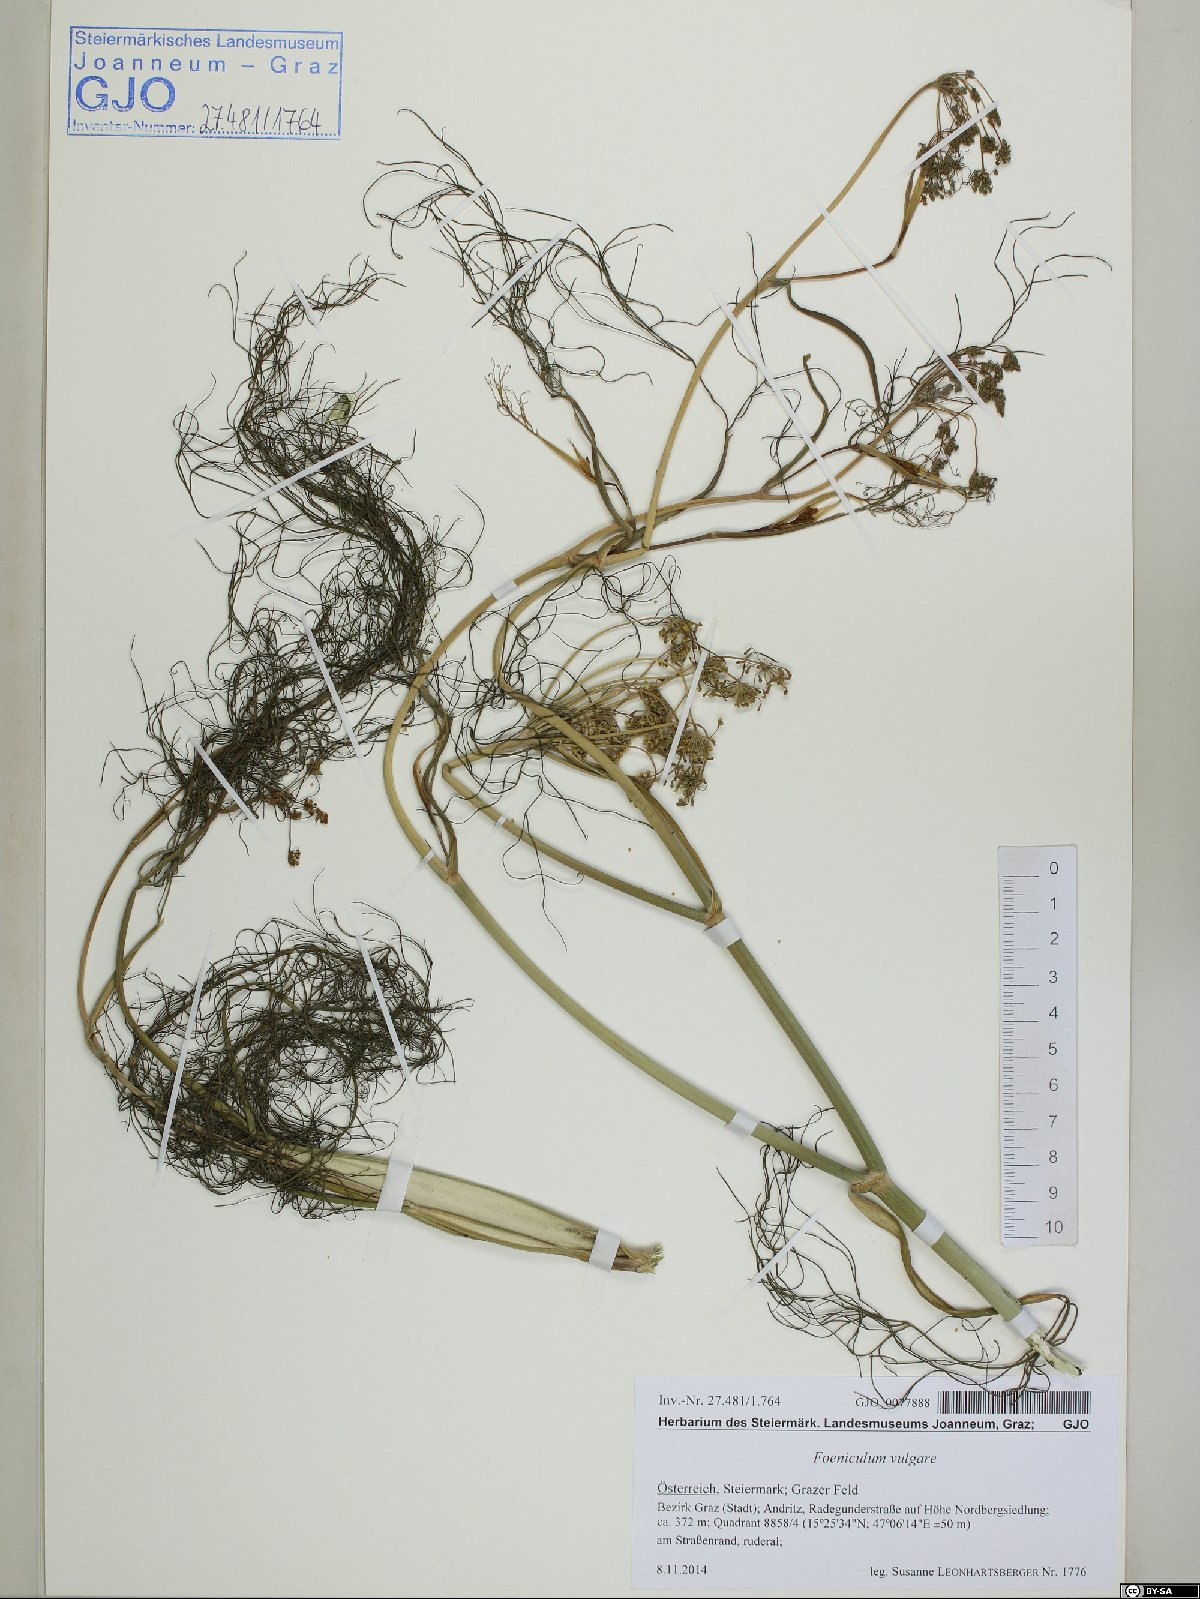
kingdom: Plantae
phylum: Tracheophyta
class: Magnoliopsida
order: Apiales
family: Apiaceae
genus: Foeniculum
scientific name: Foeniculum vulgare
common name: Fennel
